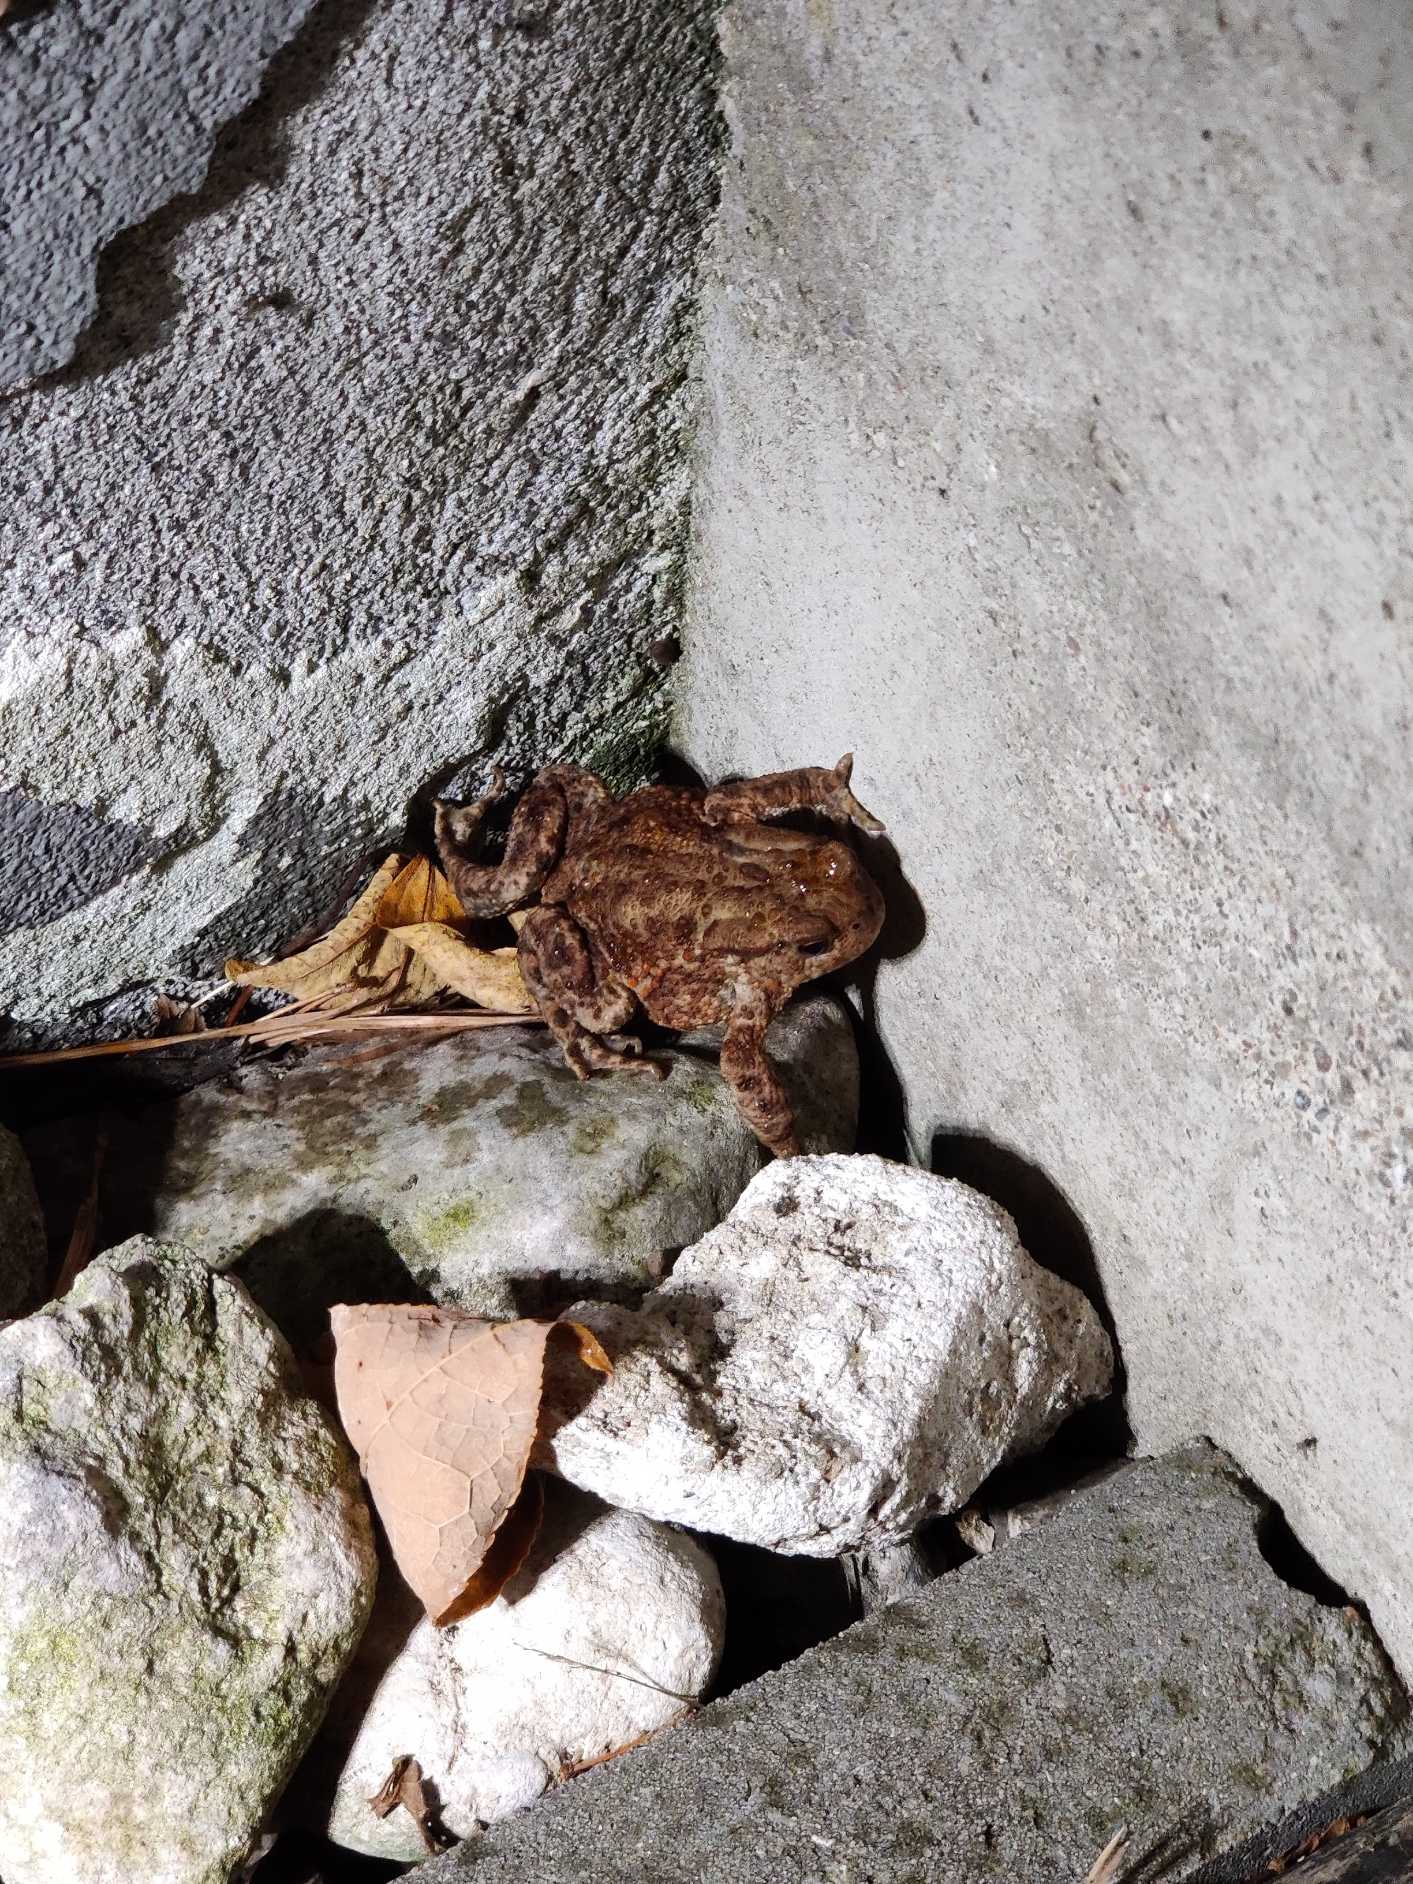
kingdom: Animalia
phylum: Chordata
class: Amphibia
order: Anura
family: Bufonidae
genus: Bufo
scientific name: Bufo bufo
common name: Skrubtudse
